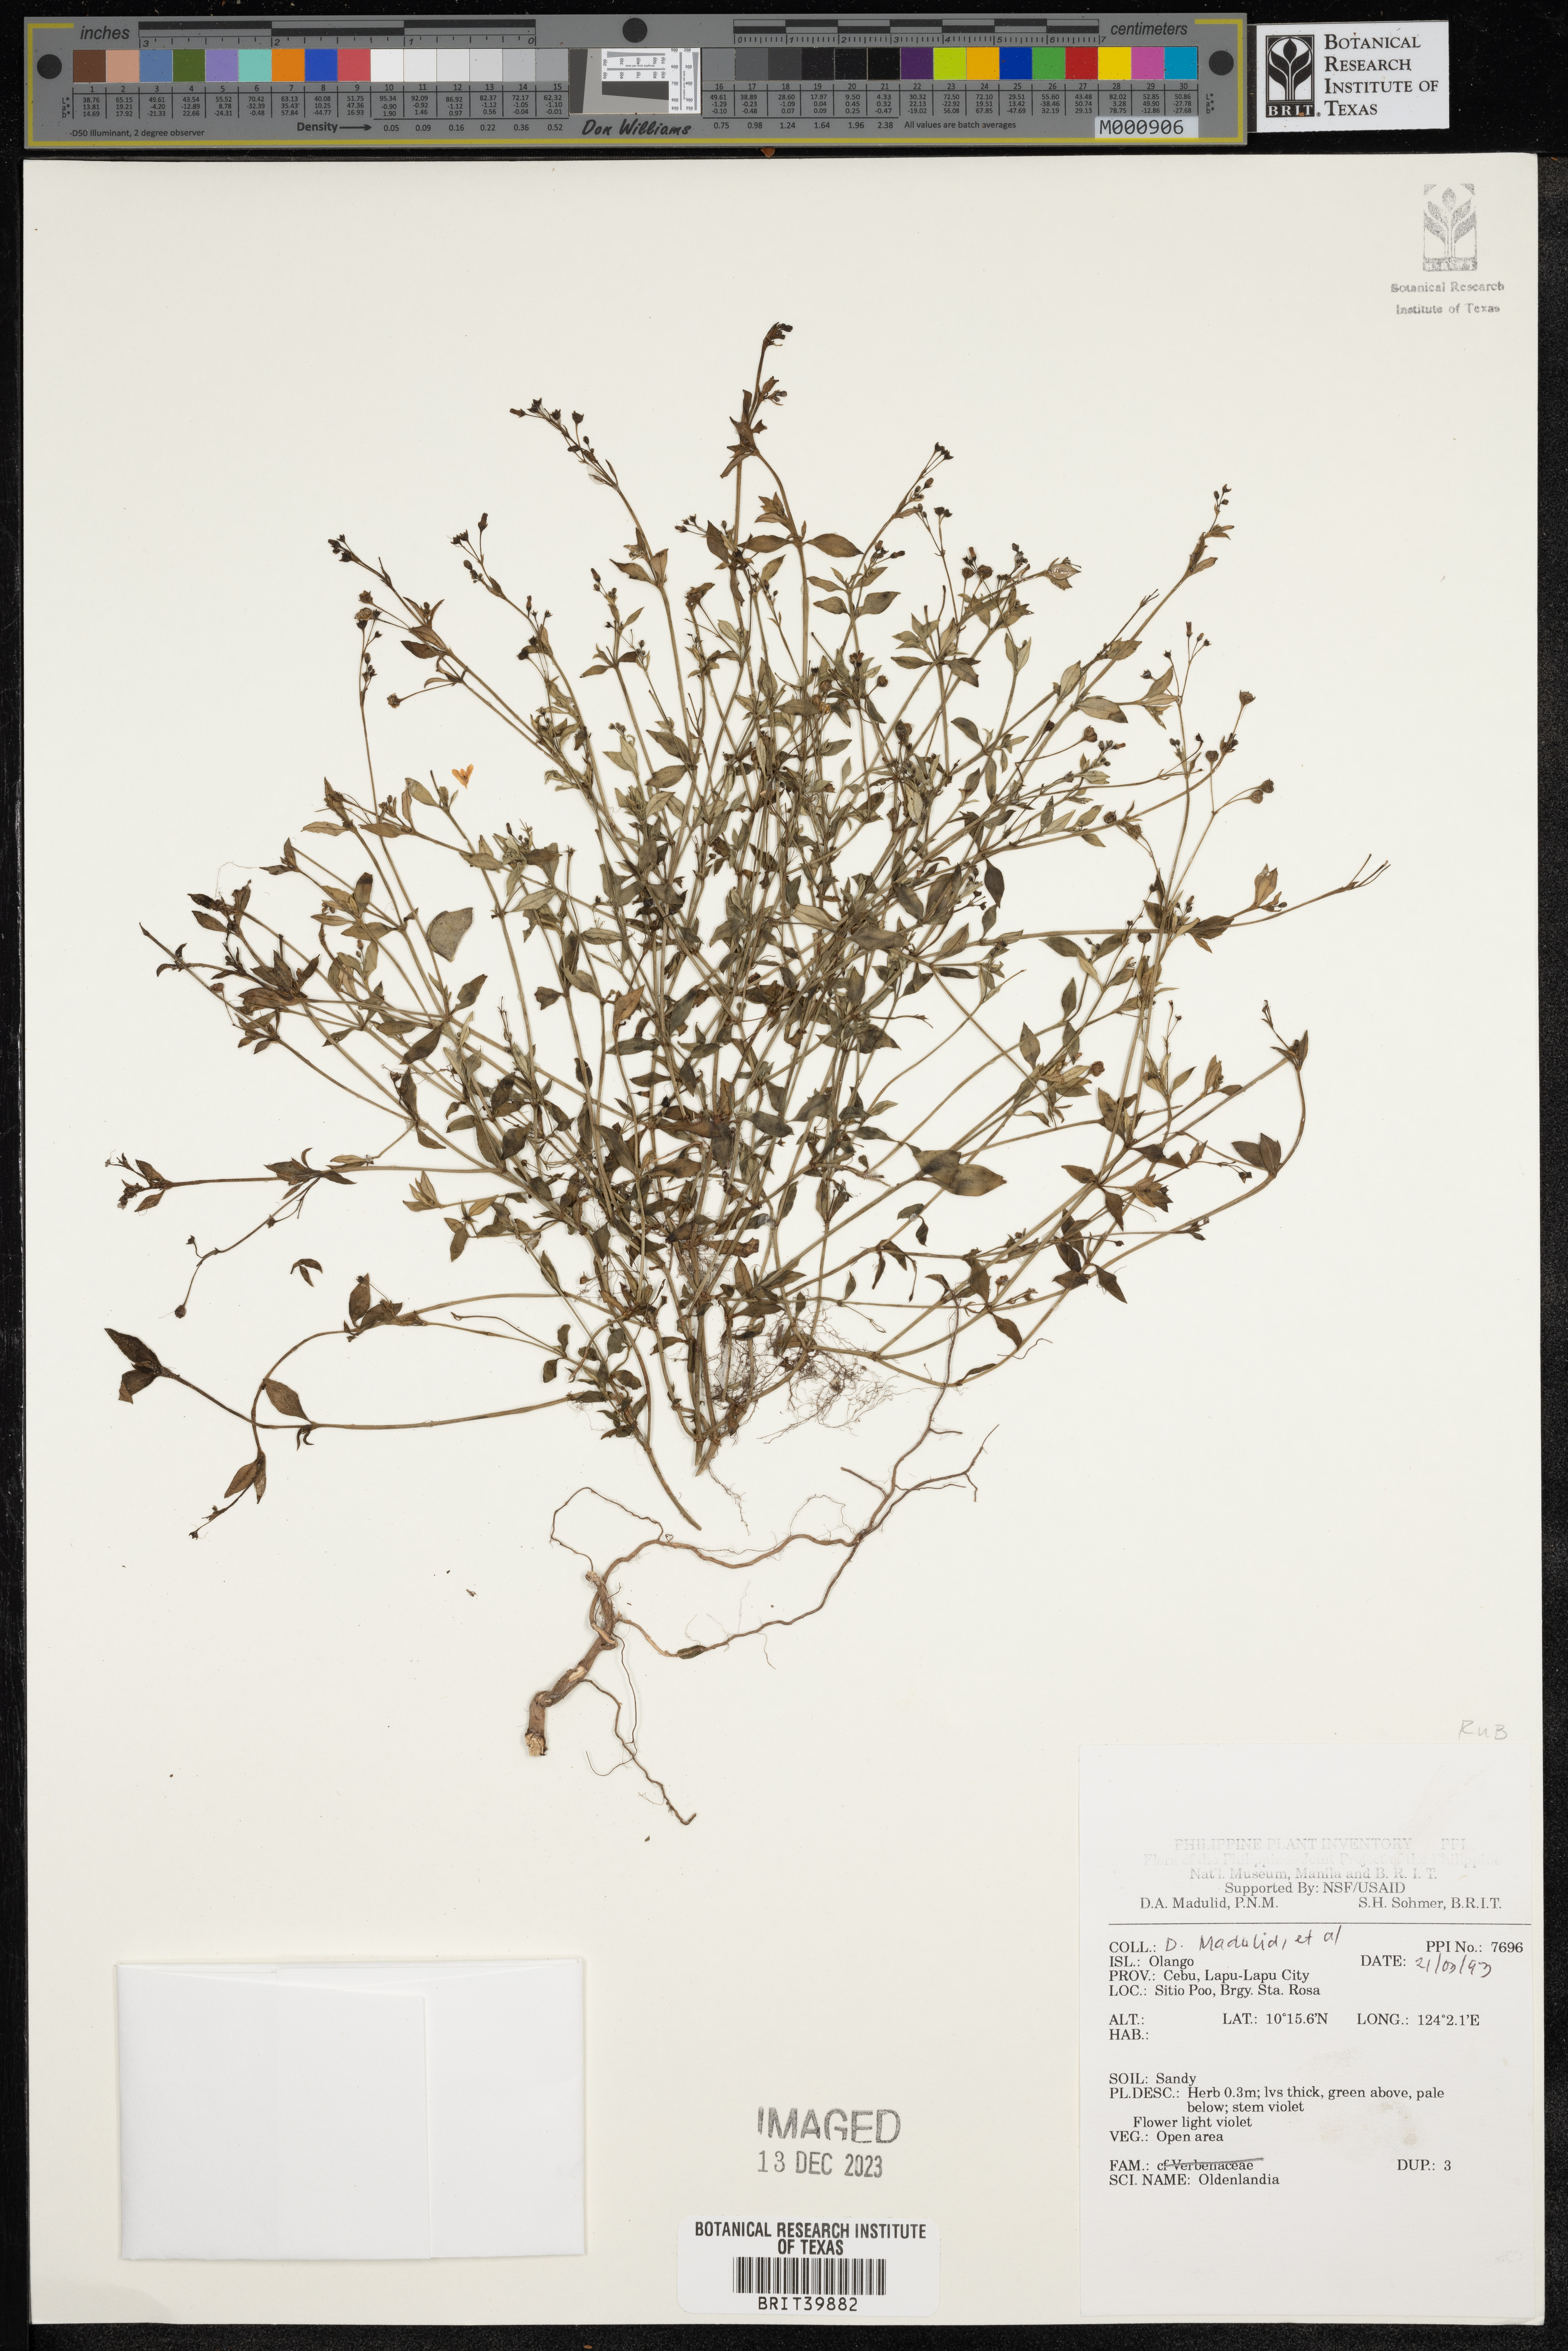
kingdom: Plantae
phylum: Tracheophyta
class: Magnoliopsida
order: Gentianales
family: Rubiaceae
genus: Oldenlandia
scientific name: Oldenlandia
